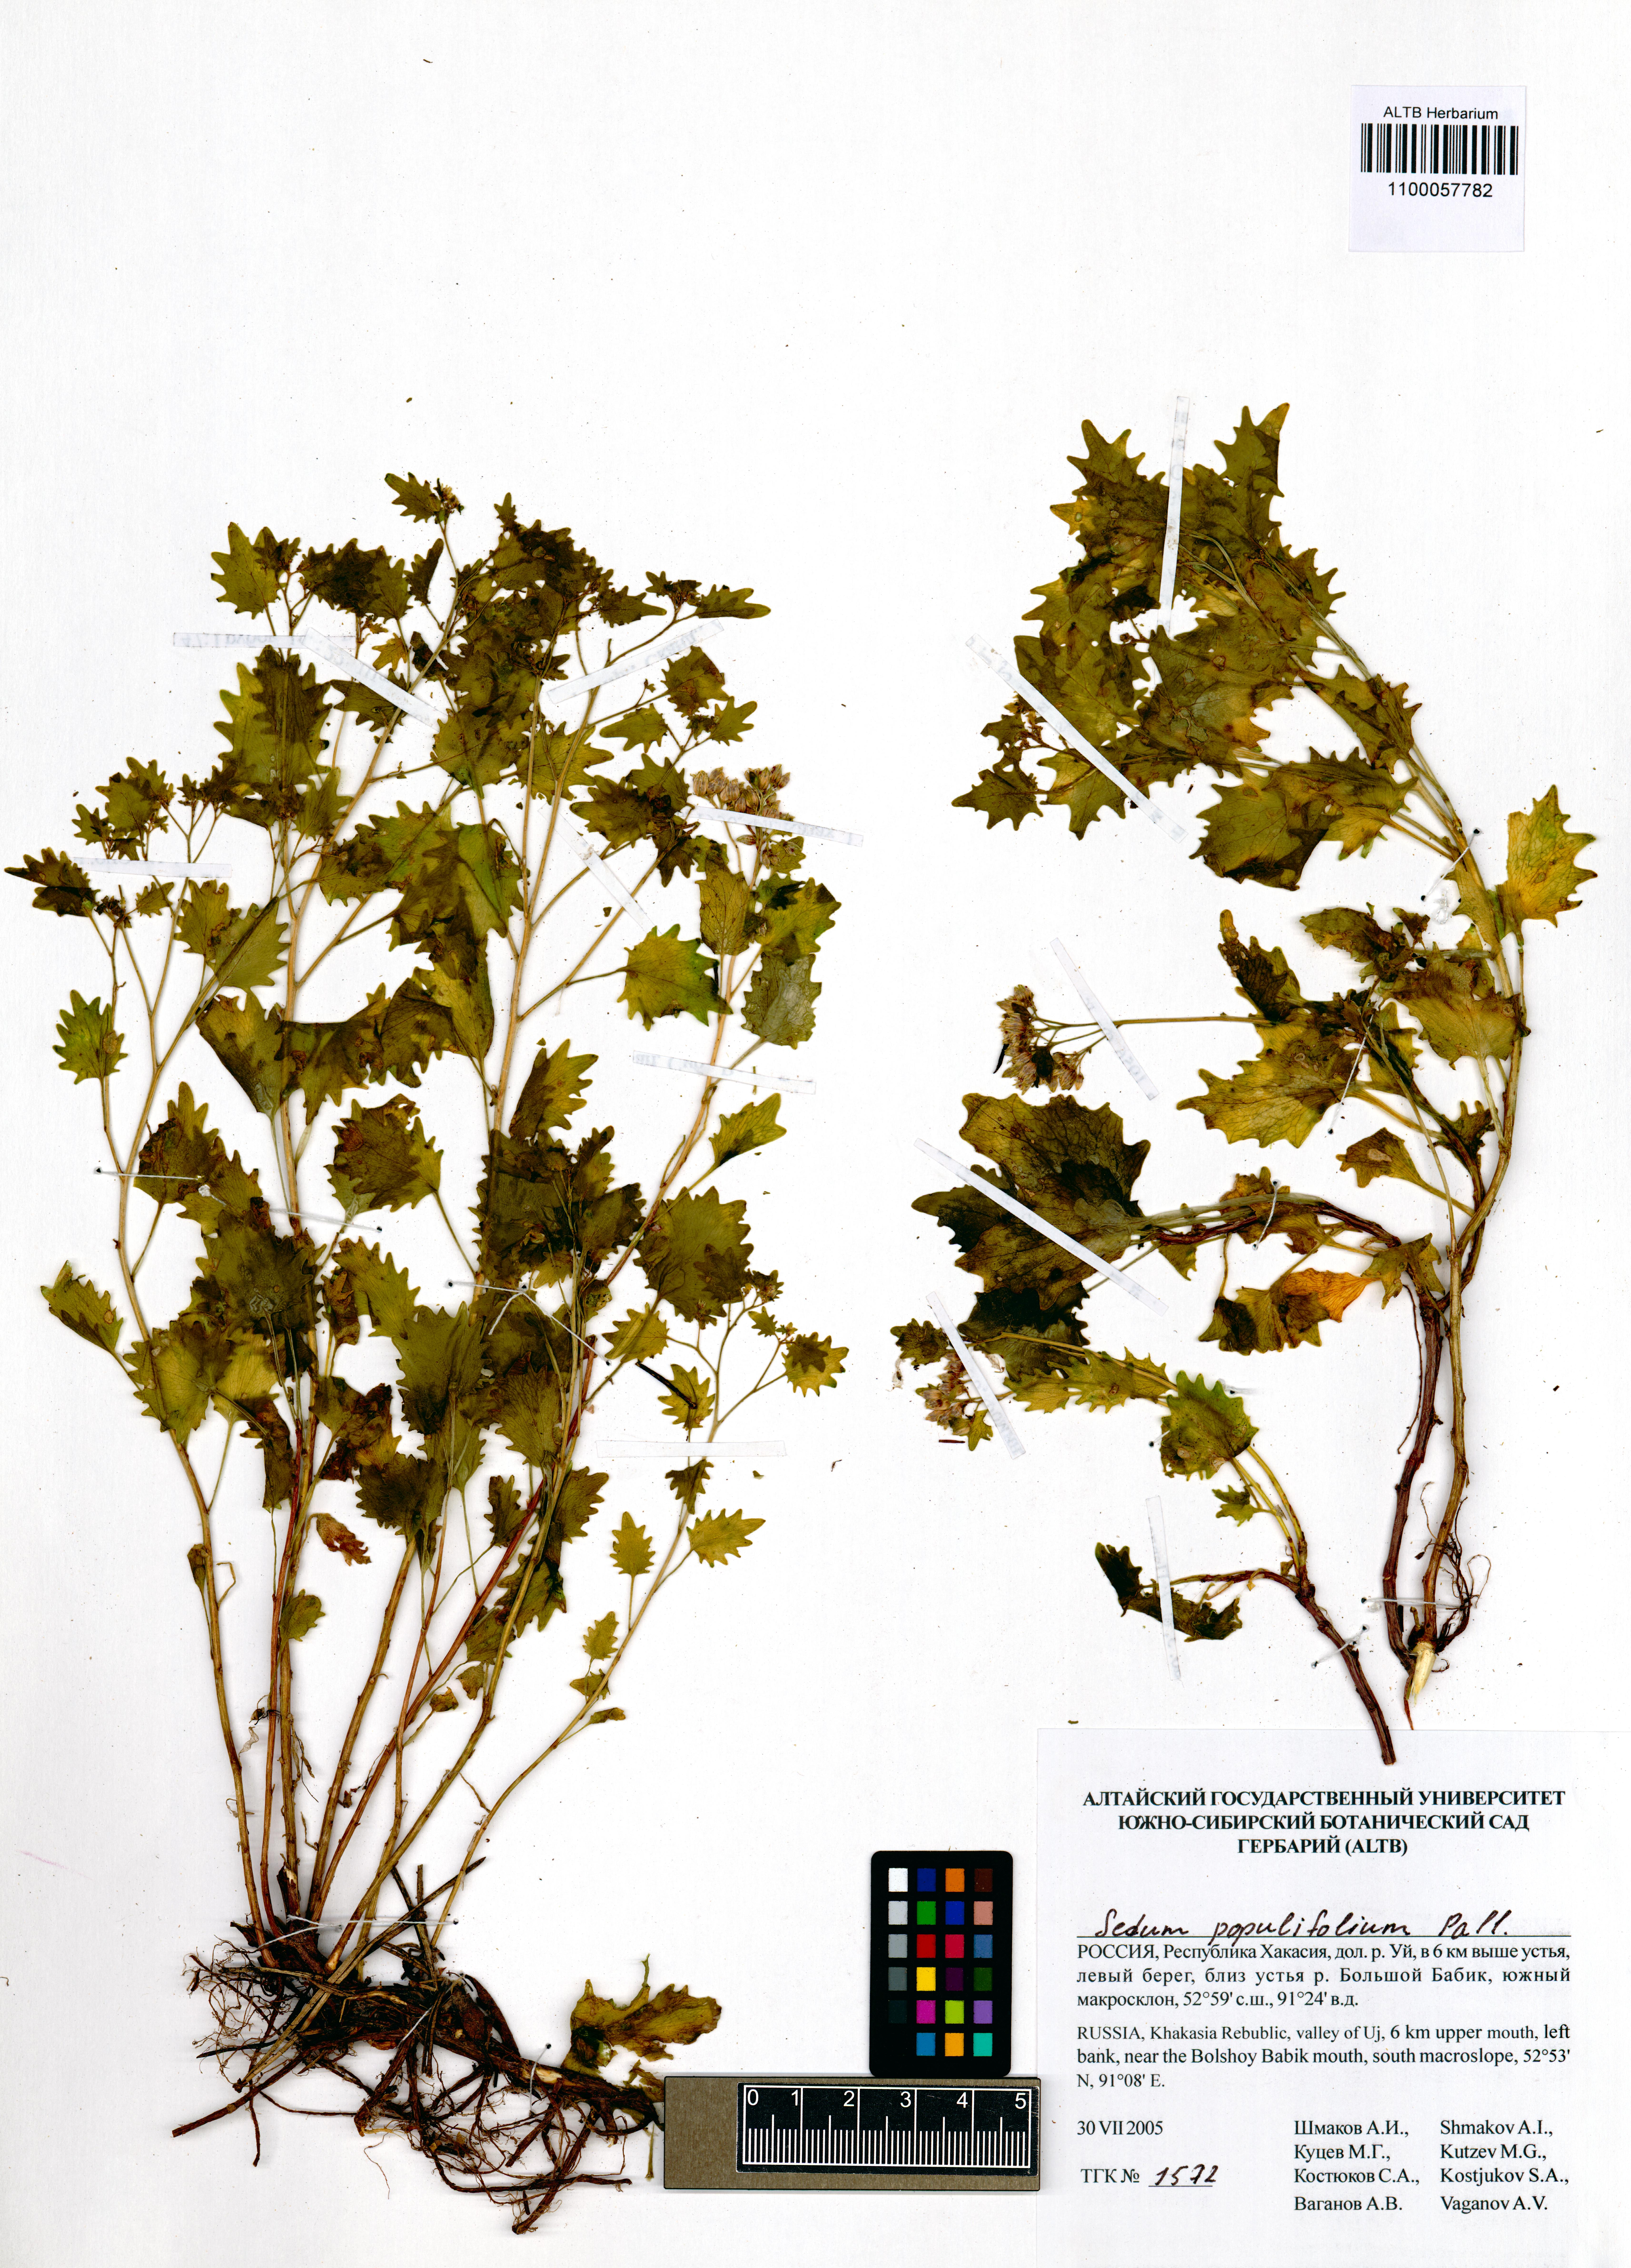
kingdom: Plantae
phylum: Tracheophyta
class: Magnoliopsida
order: Saxifragales
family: Crassulaceae
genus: Hylotelephium
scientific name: Hylotelephium populifolium
